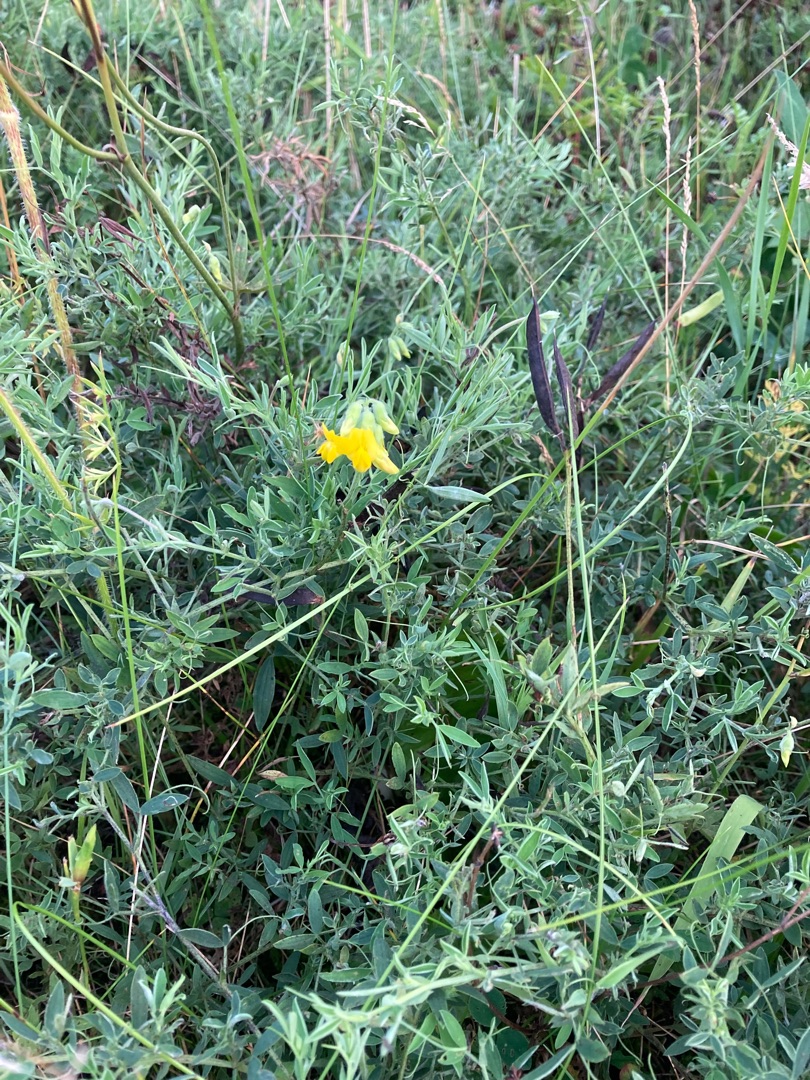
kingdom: Plantae
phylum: Tracheophyta
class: Magnoliopsida
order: Fabales
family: Fabaceae
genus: Lathyrus
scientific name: Lathyrus pratensis
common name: Gul fladbælg
